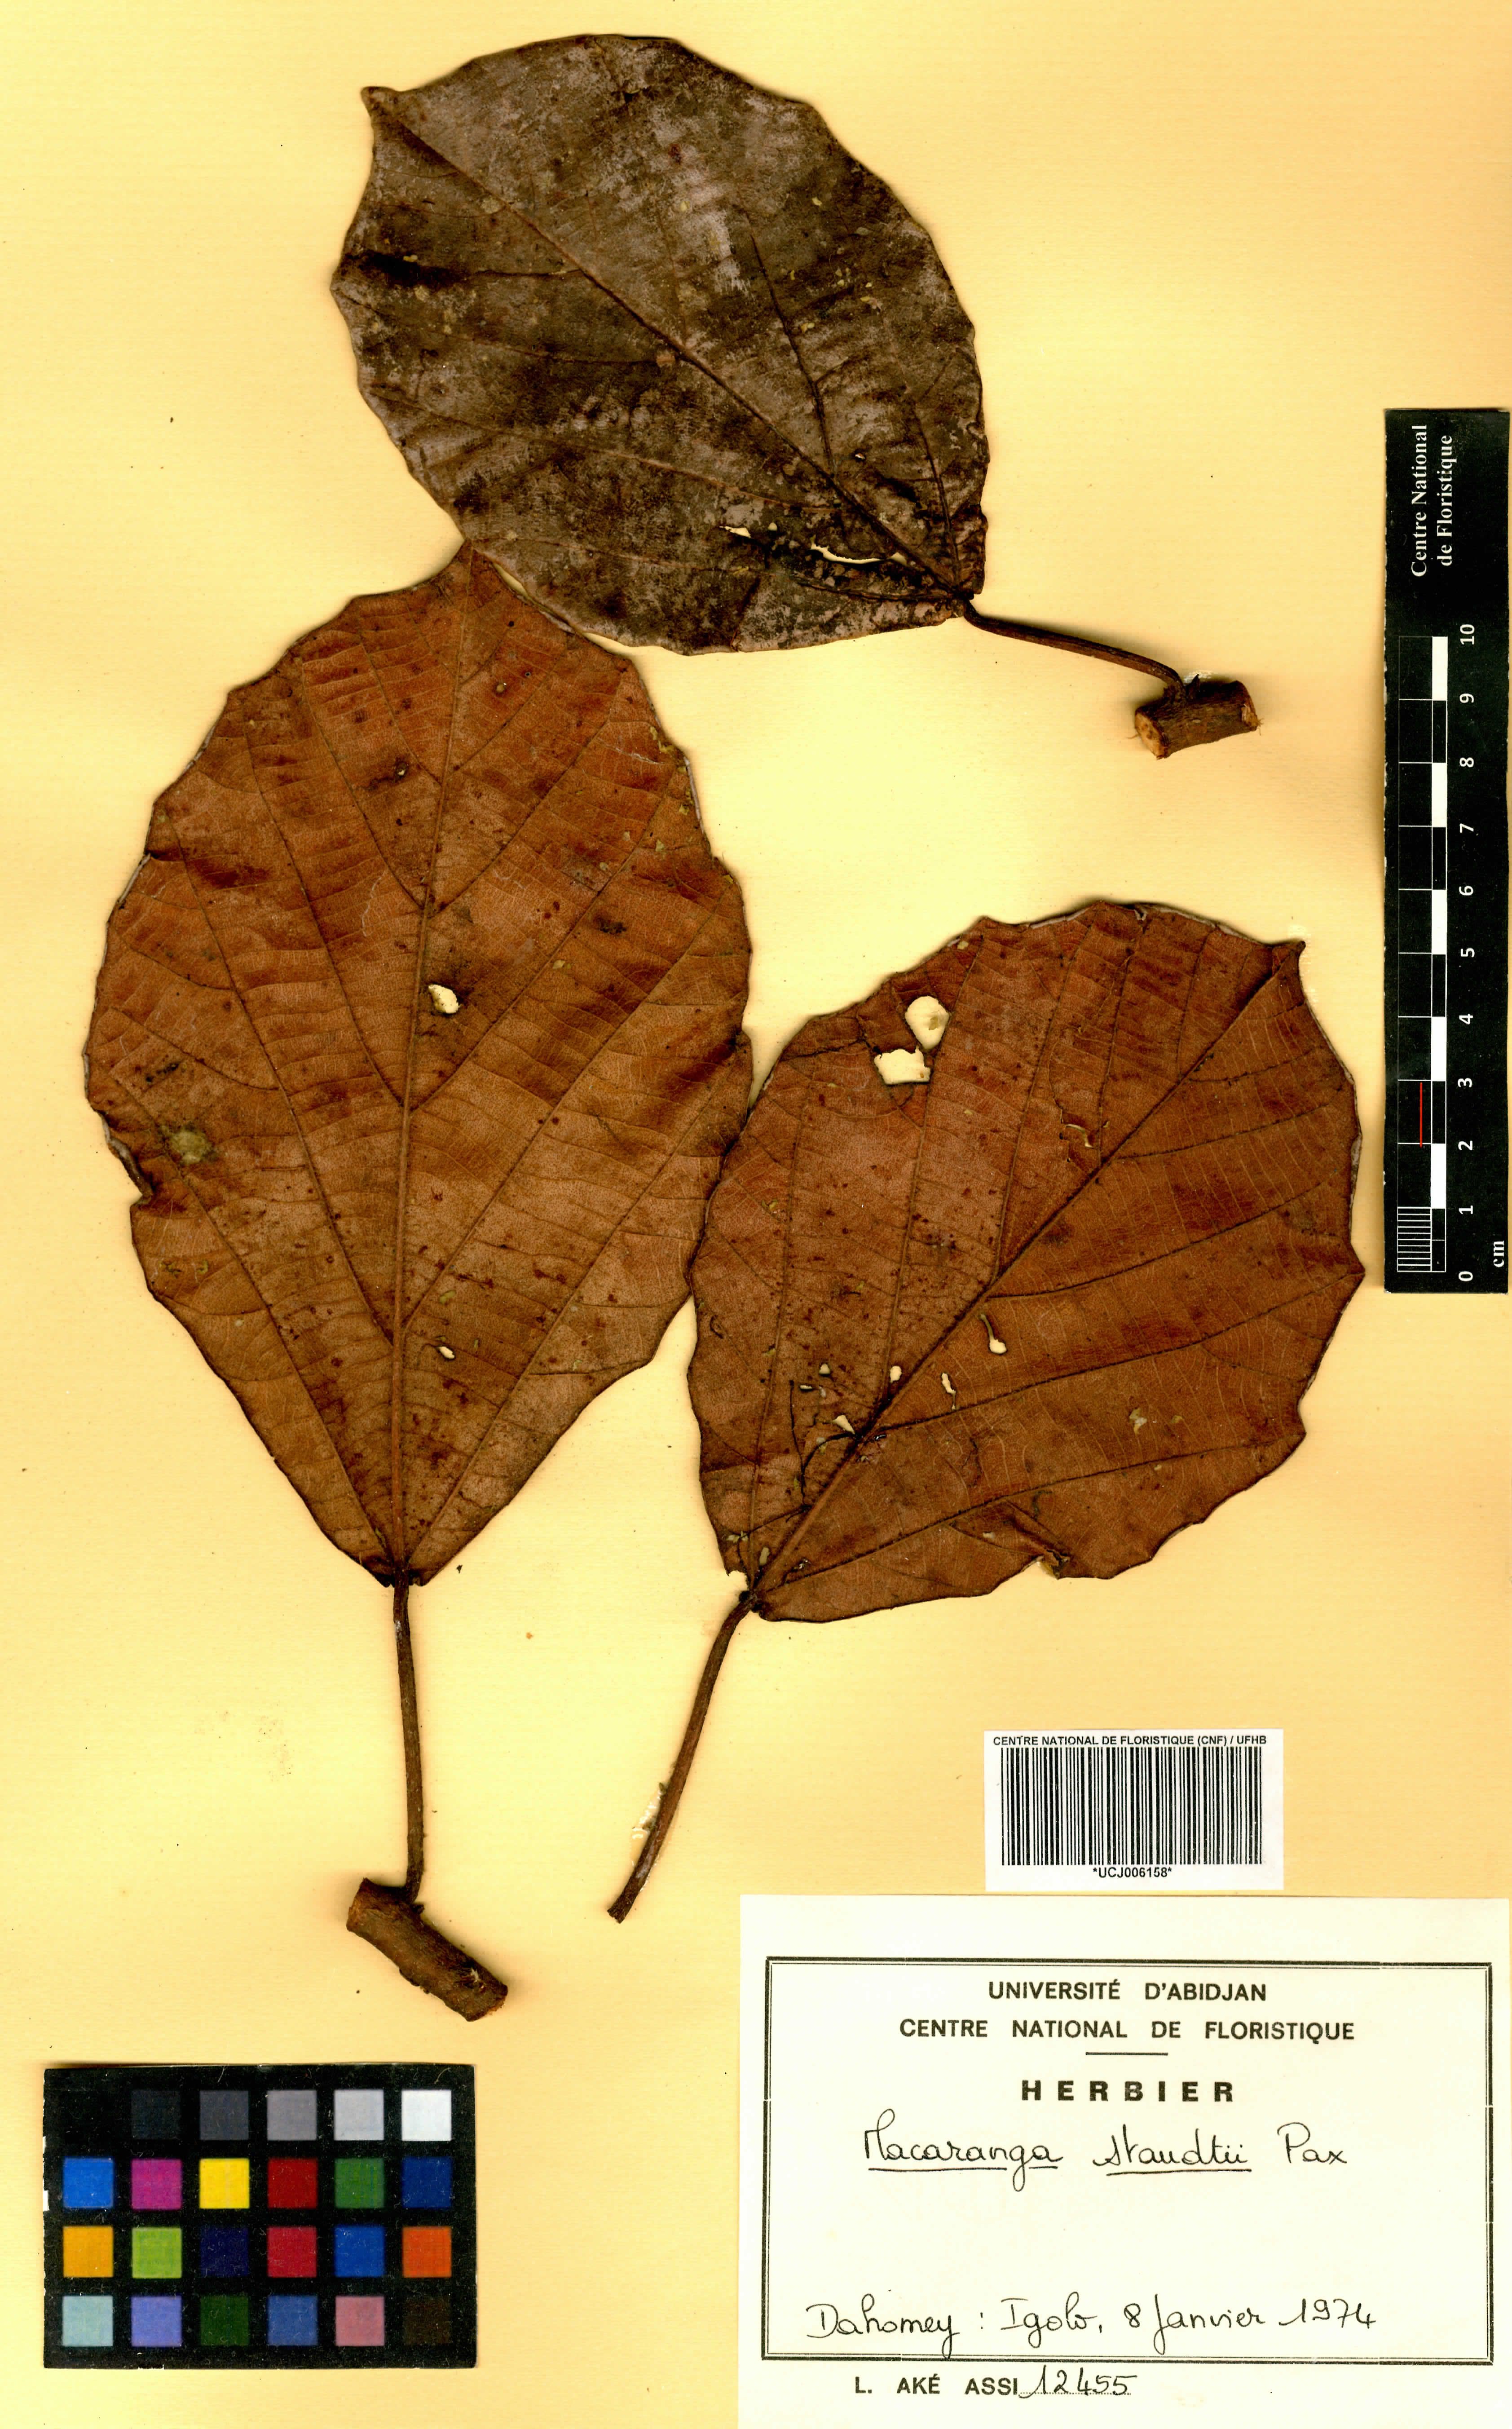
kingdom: Plantae
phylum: Tracheophyta
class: Magnoliopsida
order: Malpighiales
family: Euphorbiaceae
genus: Macaranga
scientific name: Macaranga staudtii
